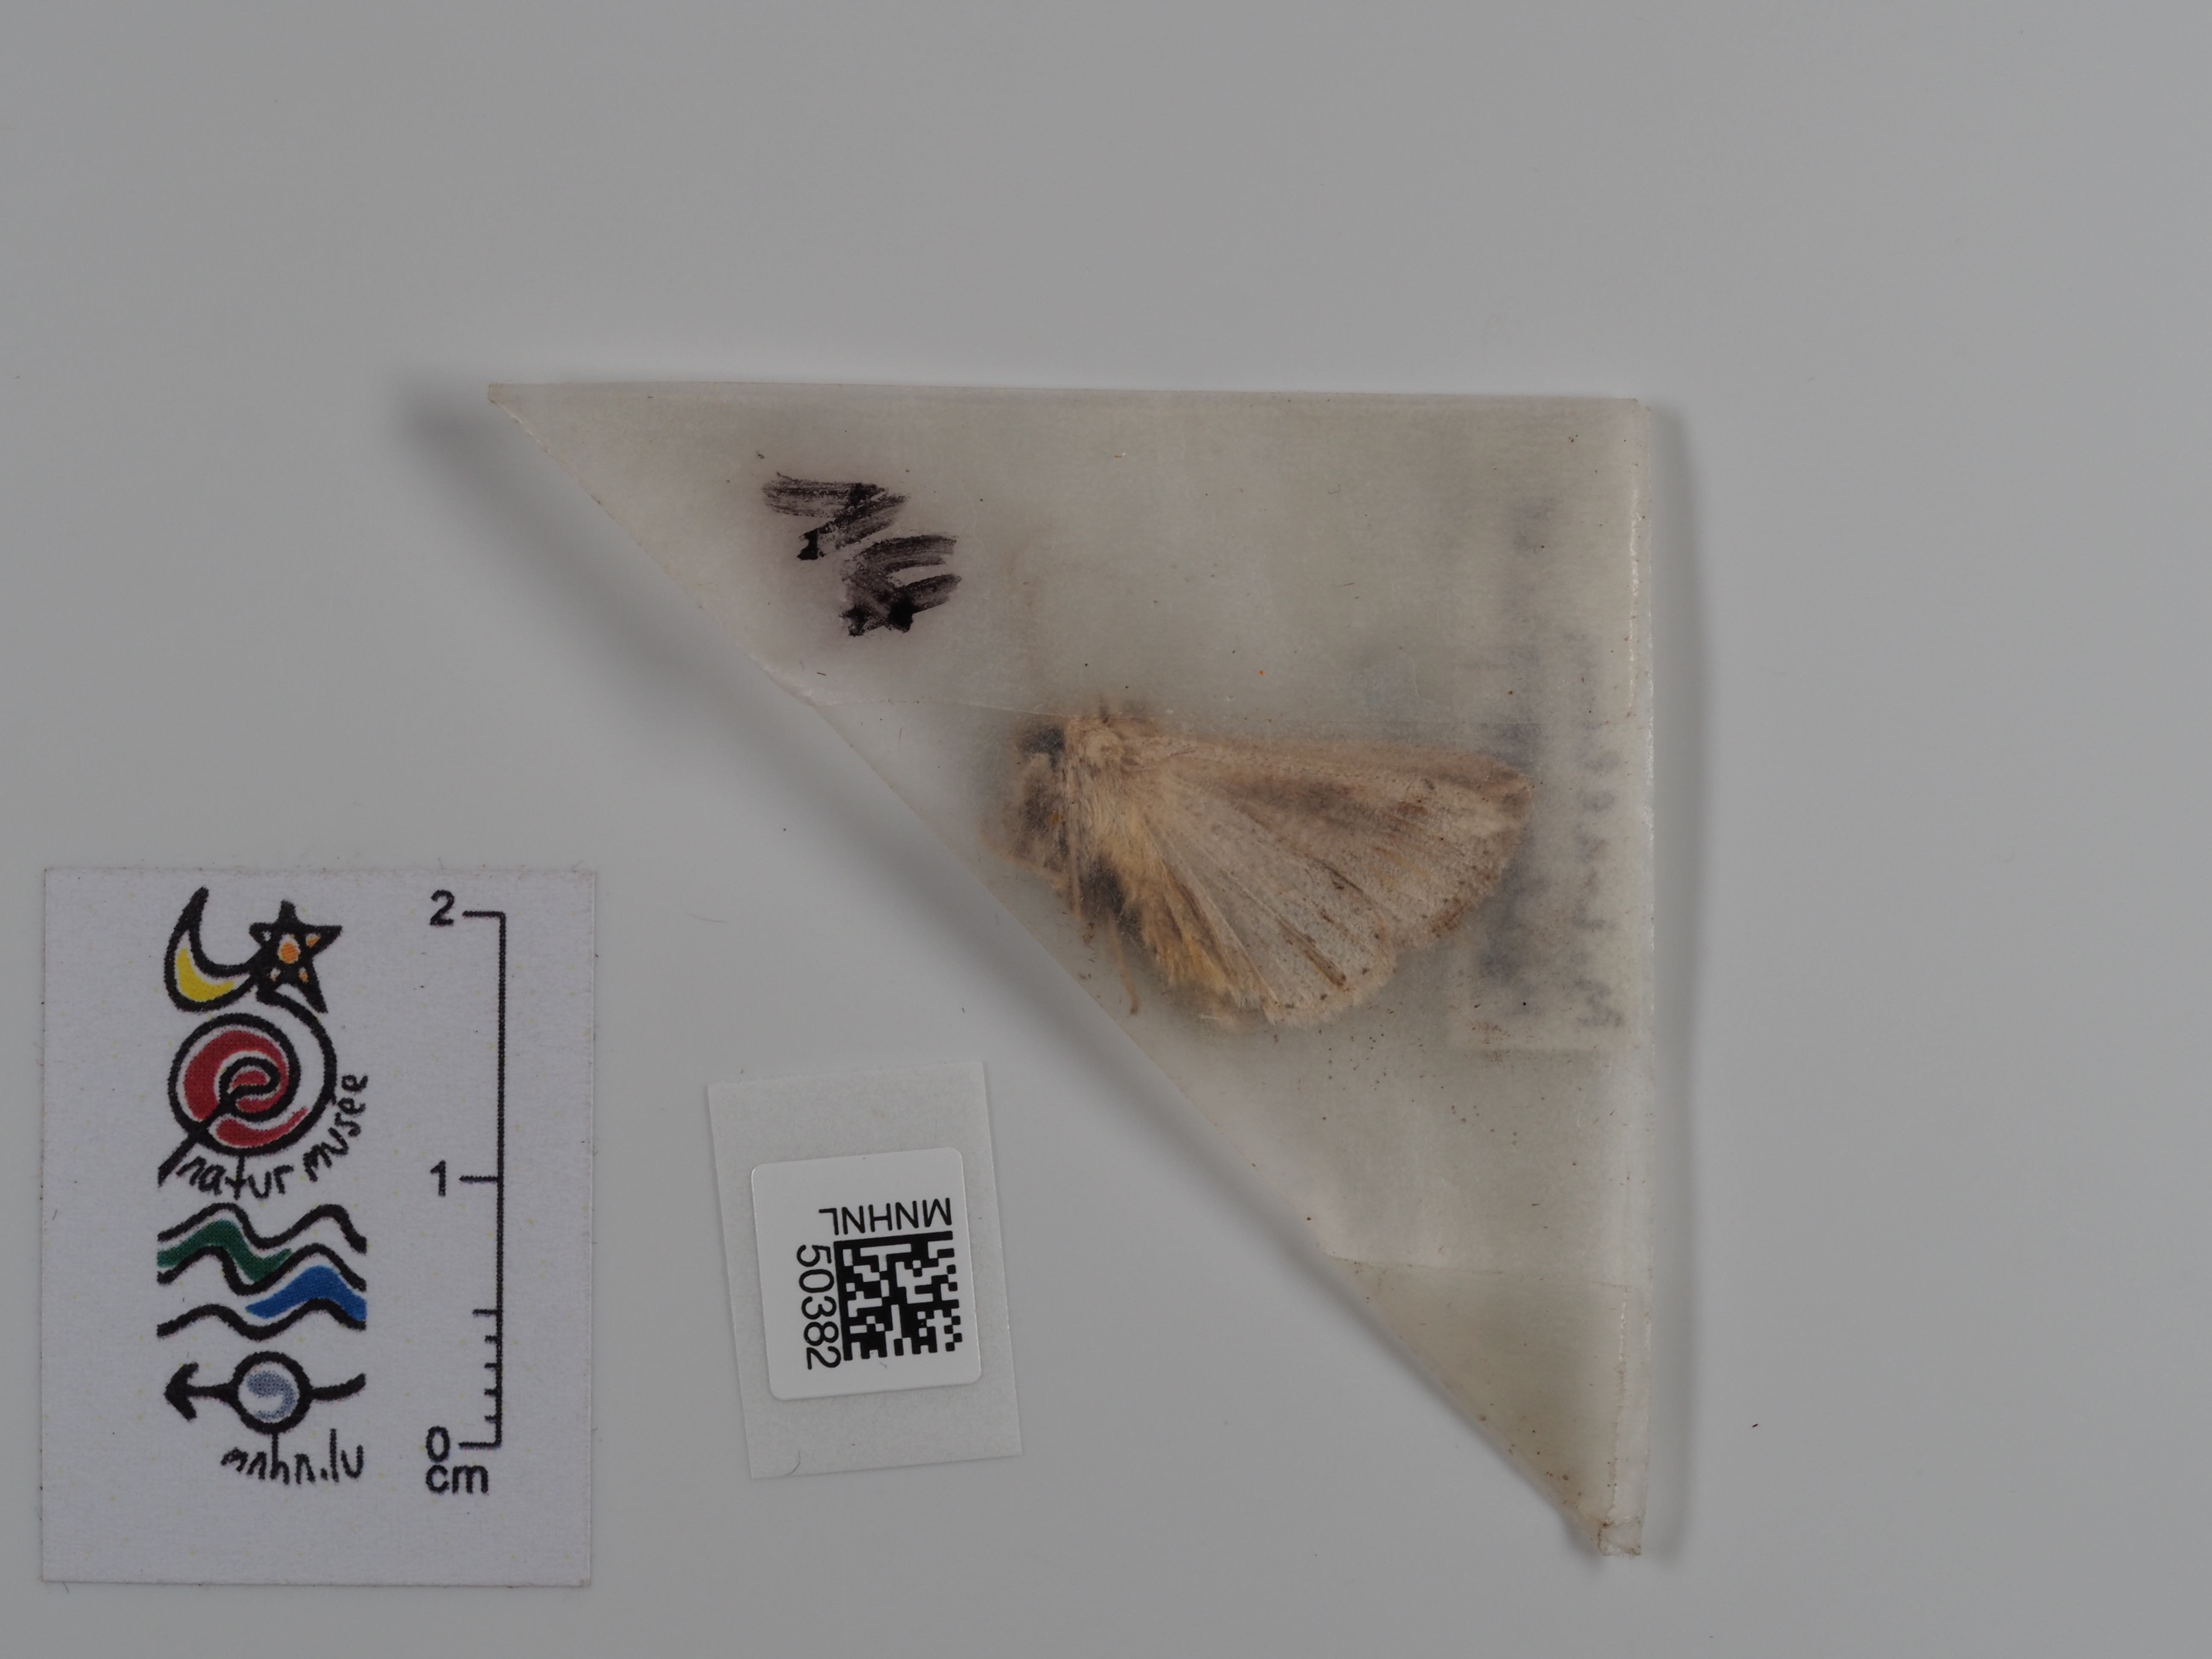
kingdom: Animalia
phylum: Arthropoda
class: Insecta
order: Lepidoptera
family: Noctuidae
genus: Mythimna
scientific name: Mythimna l-album
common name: L-album wainscot
